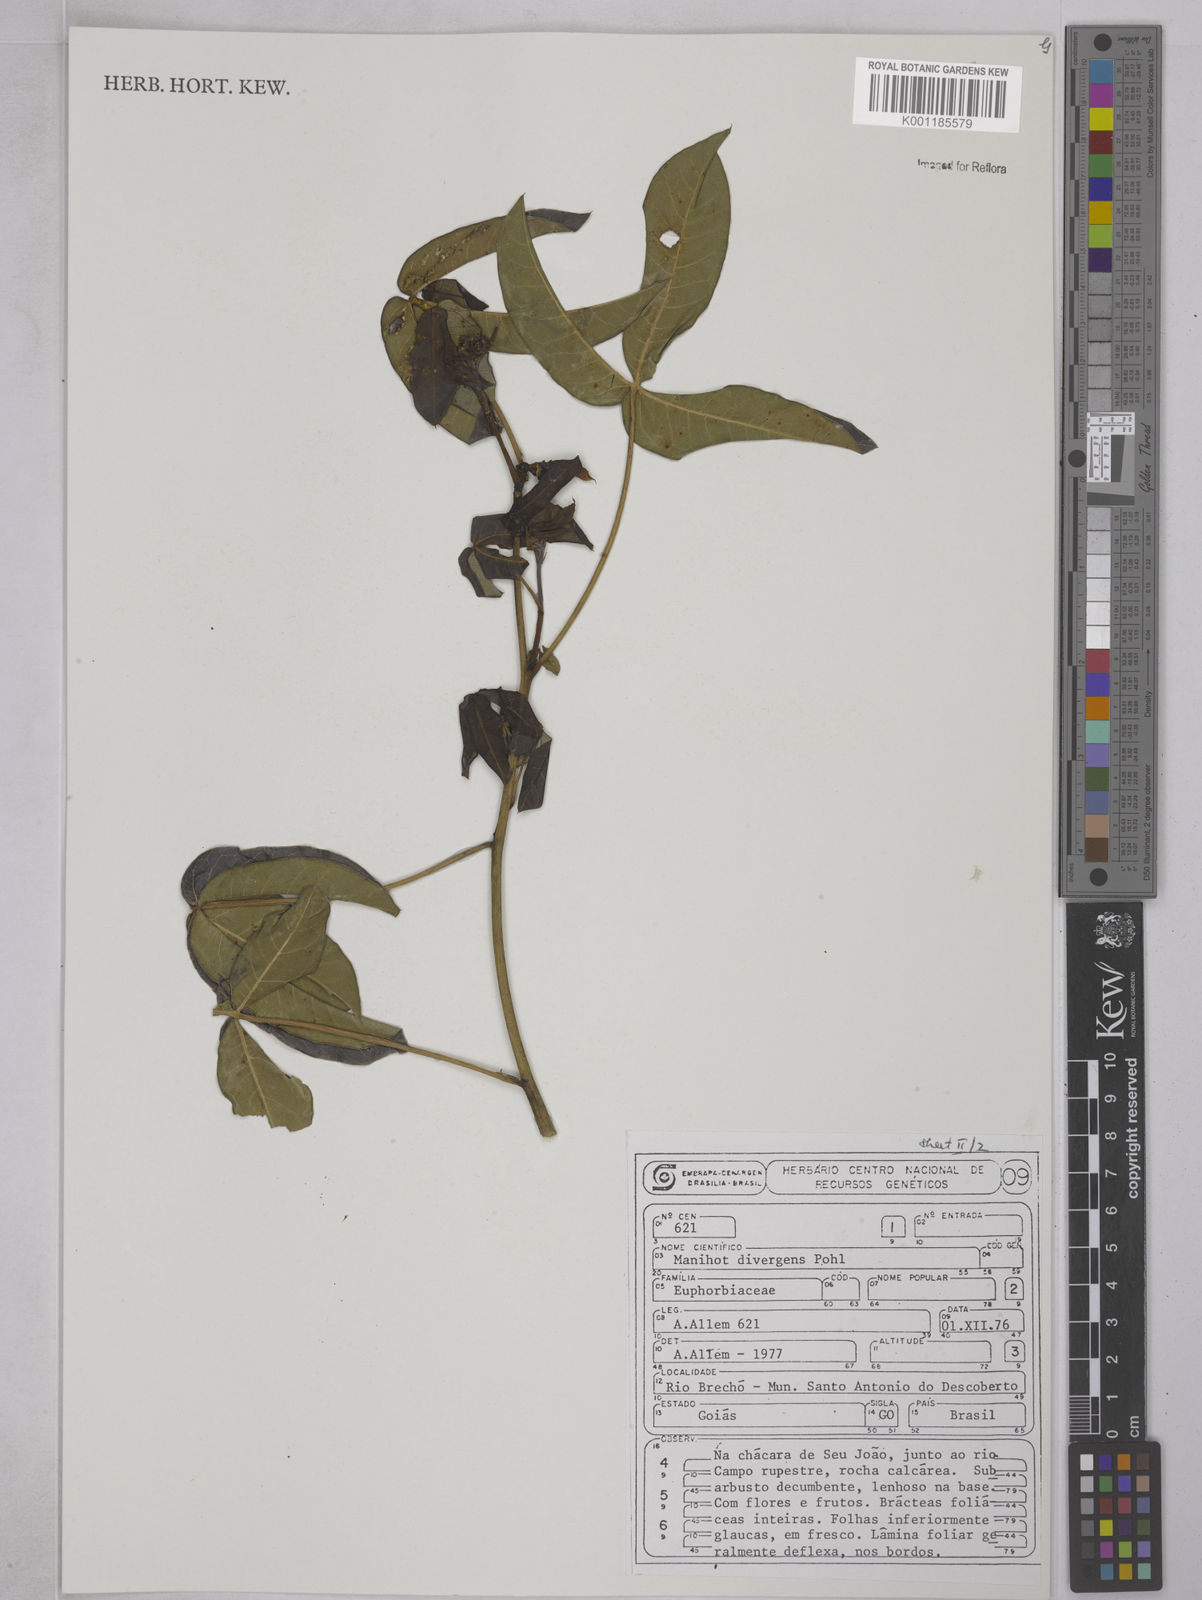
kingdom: Plantae
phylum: Tracheophyta
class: Magnoliopsida
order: Malpighiales
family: Euphorbiaceae
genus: Manihot
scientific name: Manihot divergens
